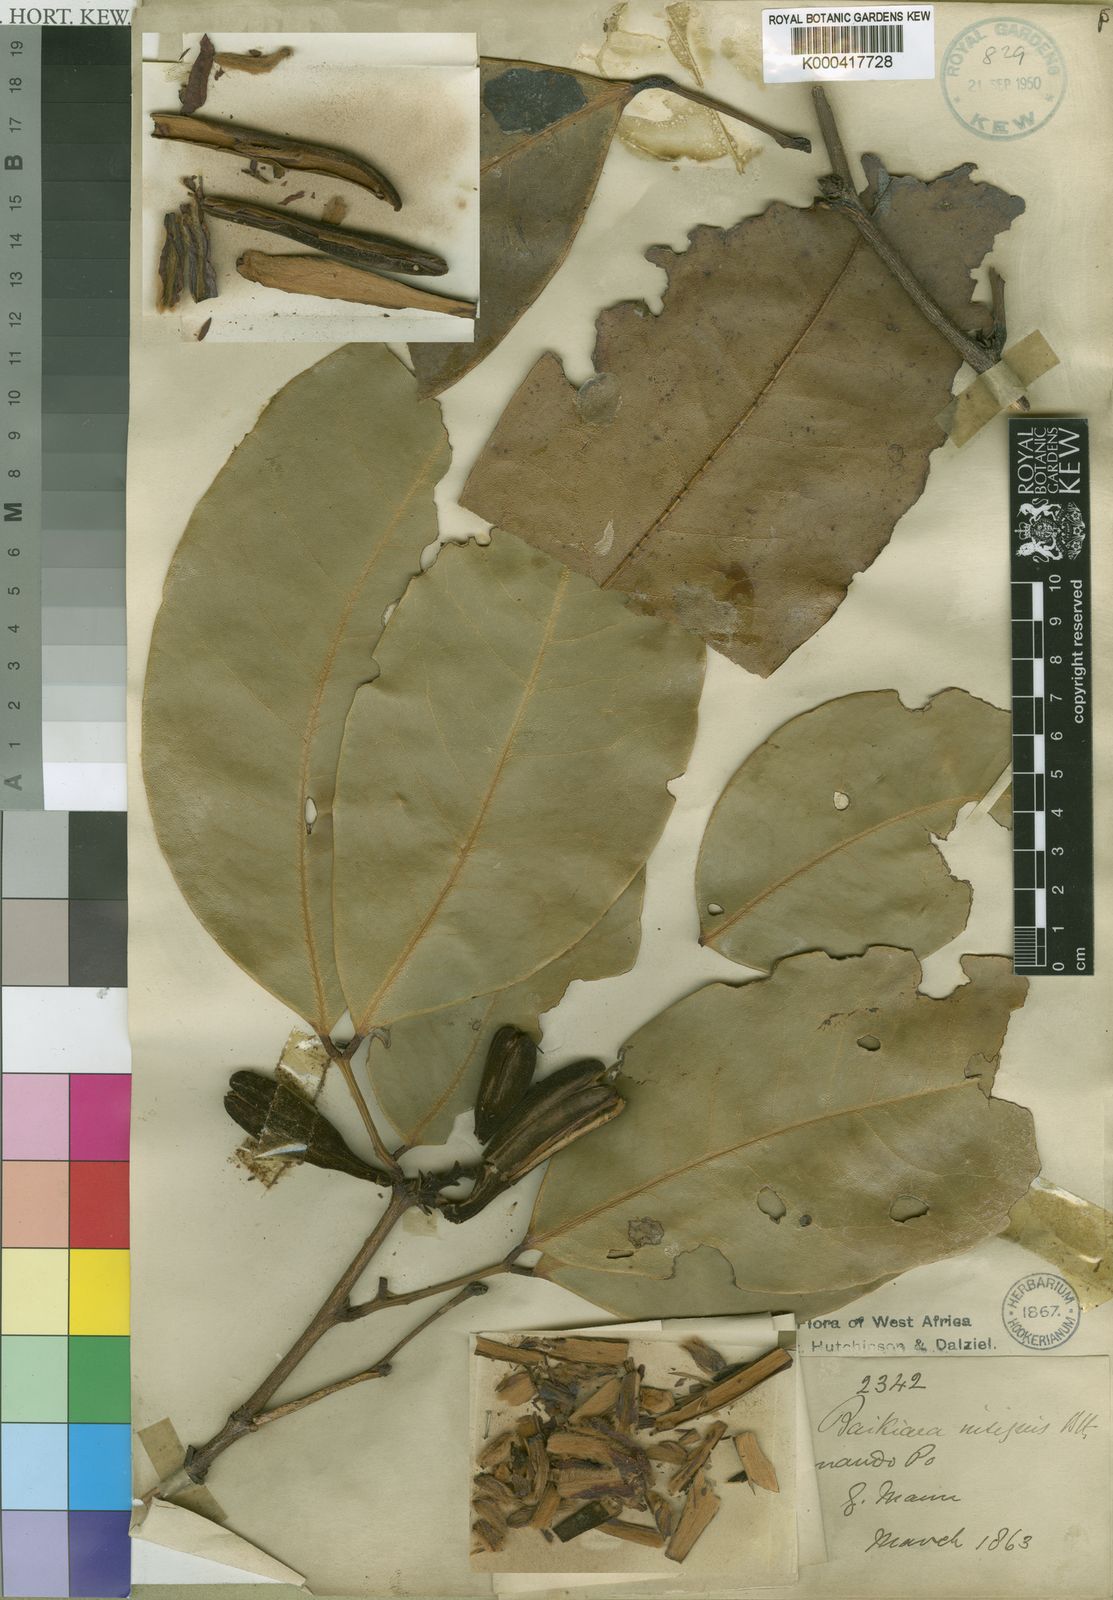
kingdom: Plantae
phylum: Tracheophyta
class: Magnoliopsida
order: Fabales
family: Fabaceae
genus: Baikiaea
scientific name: Baikiaea insignis
